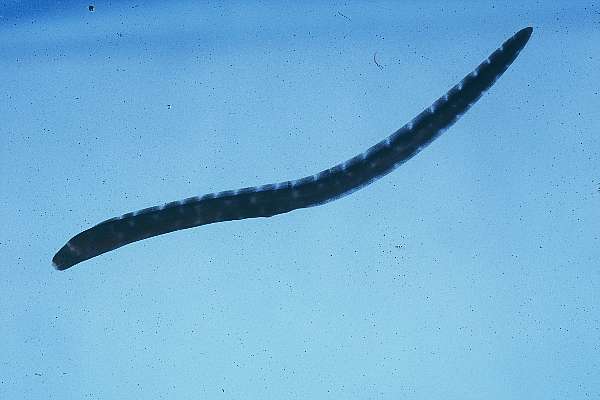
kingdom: Animalia
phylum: Chordata
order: Anguilliformes
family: Muraenidae
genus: Gymnothorax
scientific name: Gymnothorax
